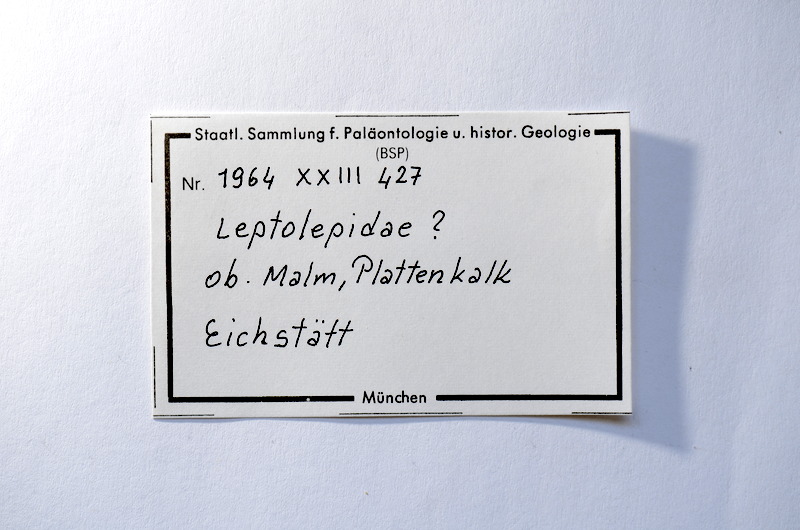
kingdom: Animalia
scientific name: Animalia
